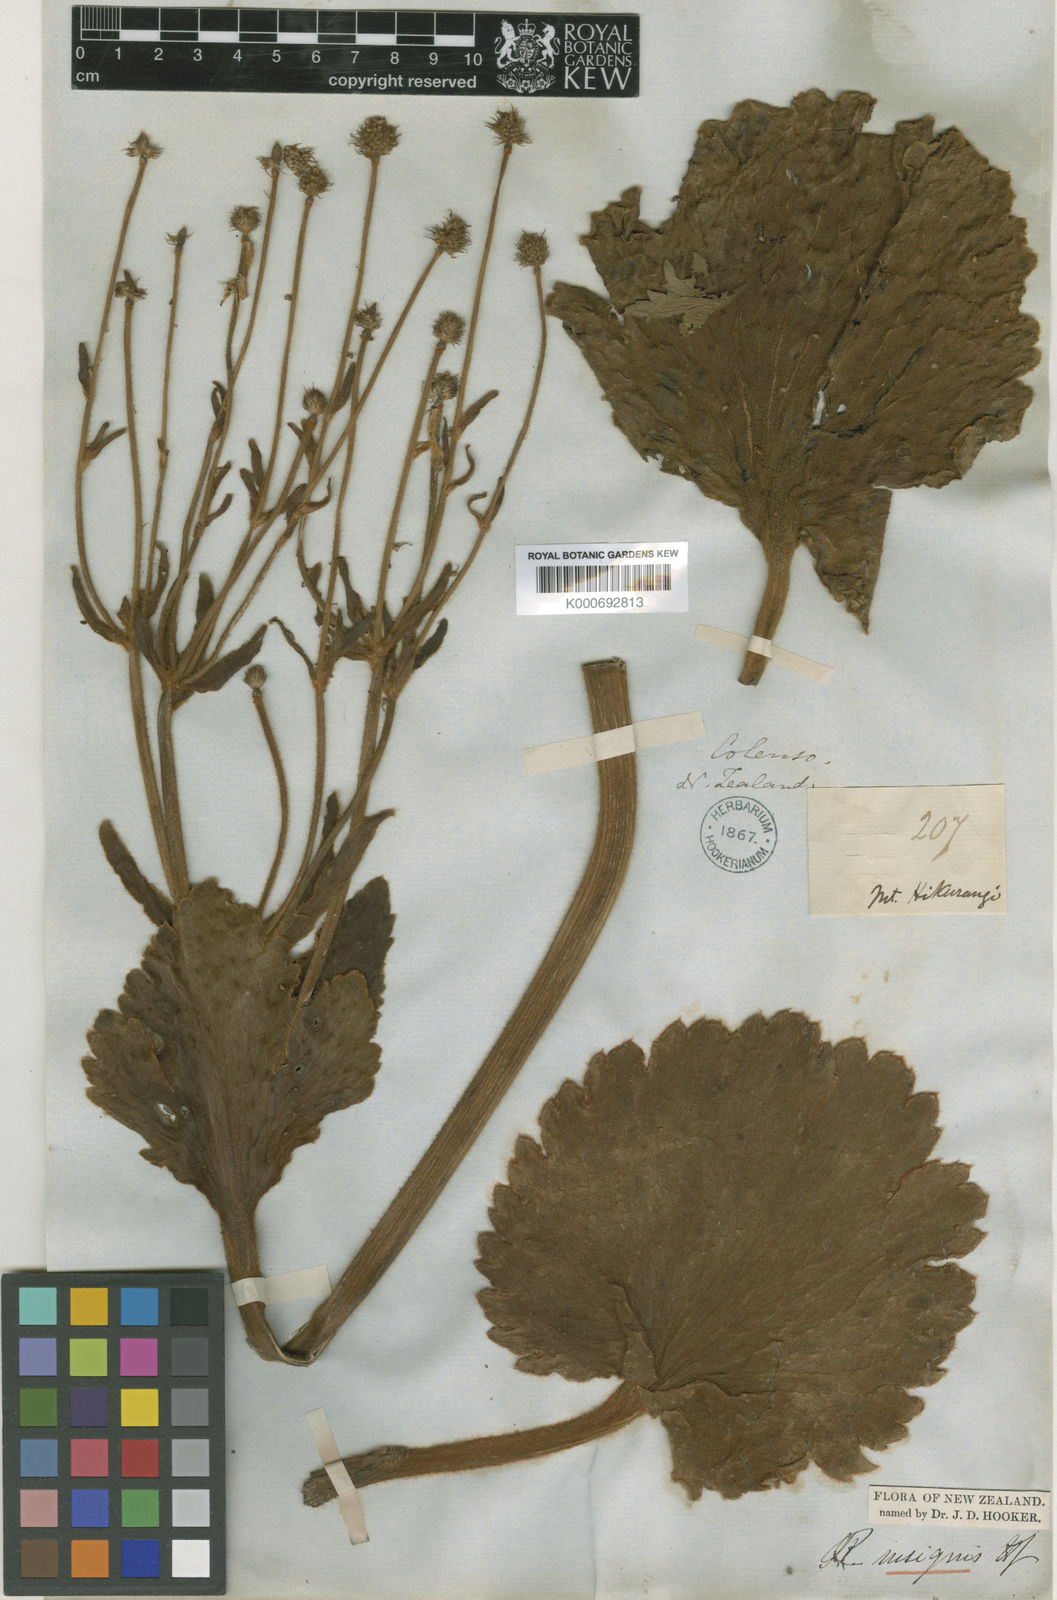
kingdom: Plantae
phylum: Tracheophyta
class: Magnoliopsida
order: Ranunculales
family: Ranunculaceae
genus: Ranunculus
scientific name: Ranunculus insignis
